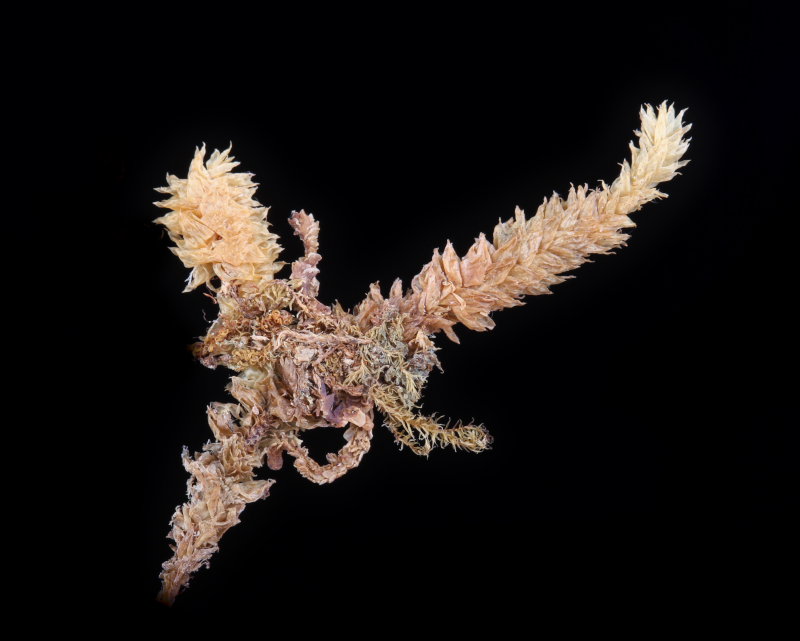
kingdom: Plantae
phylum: Bryophyta
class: Bryopsida
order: Hypnales
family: Pterobryaceae
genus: Calyptothecium
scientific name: Calyptothecium wightii
